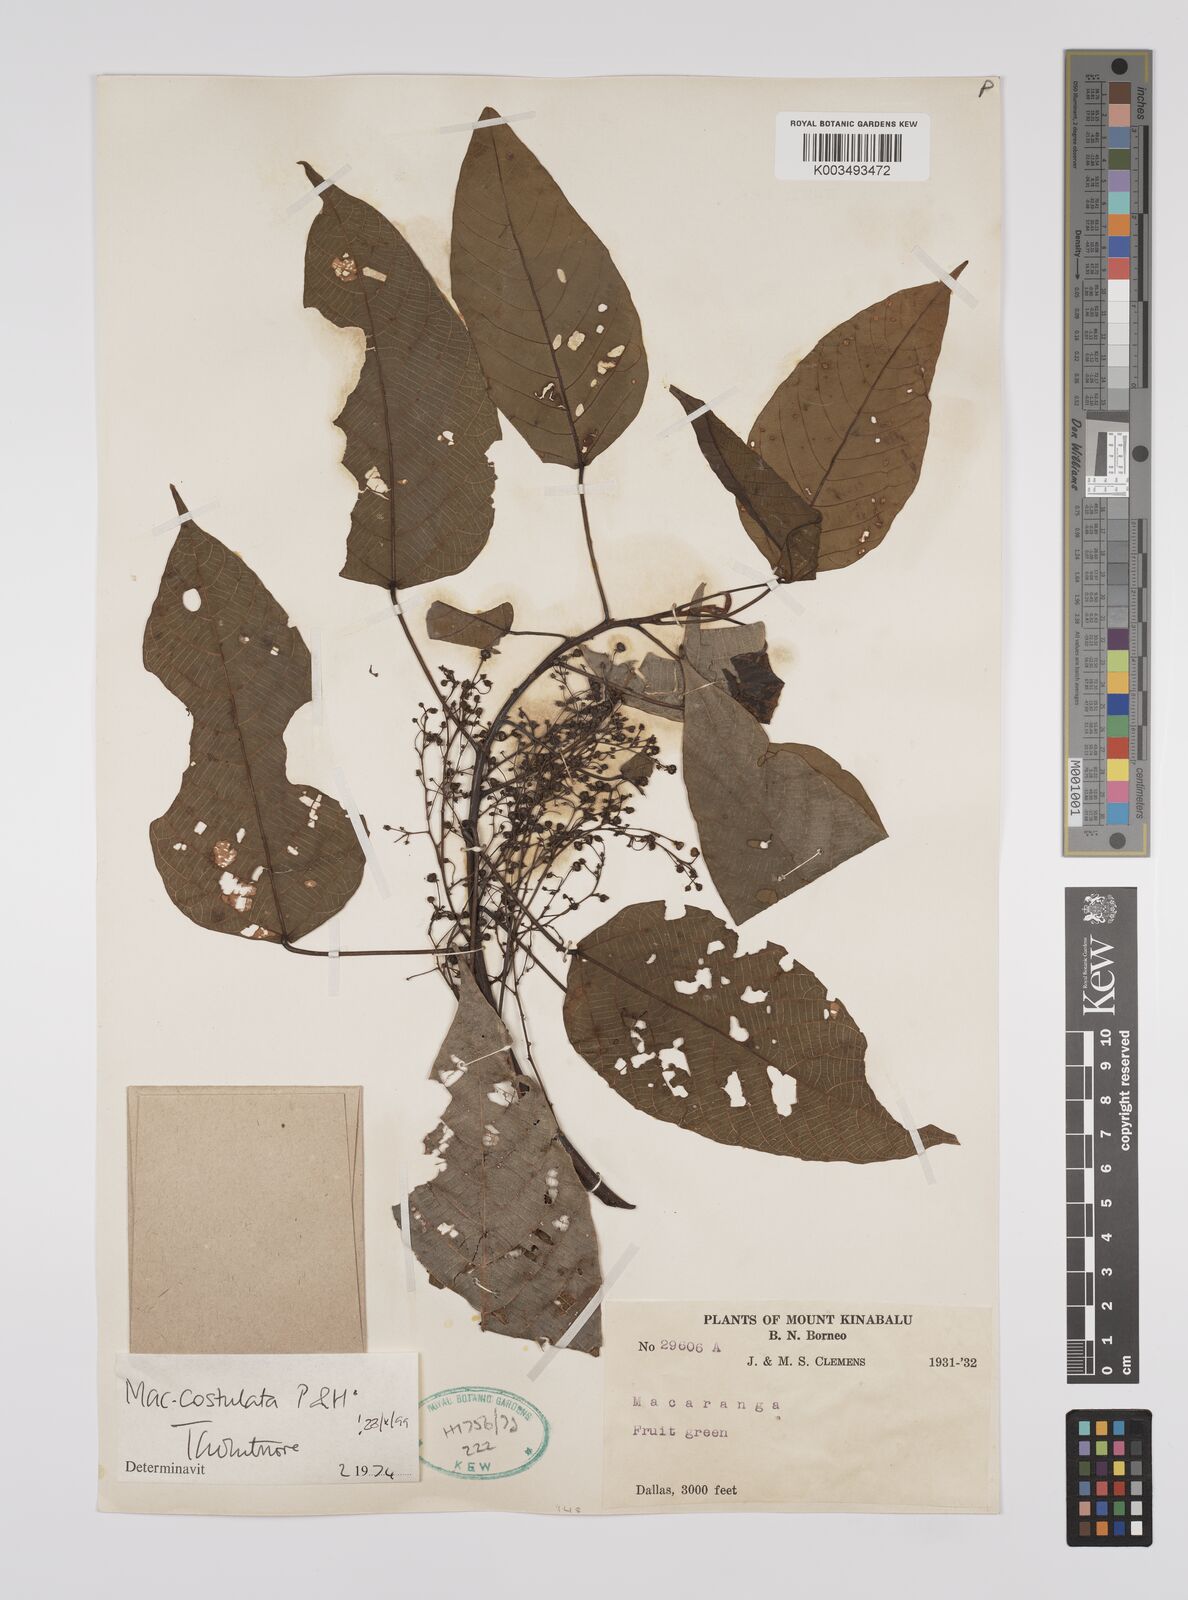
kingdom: Plantae
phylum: Tracheophyta
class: Magnoliopsida
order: Malpighiales
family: Euphorbiaceae
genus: Macaranga
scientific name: Macaranga costulata
